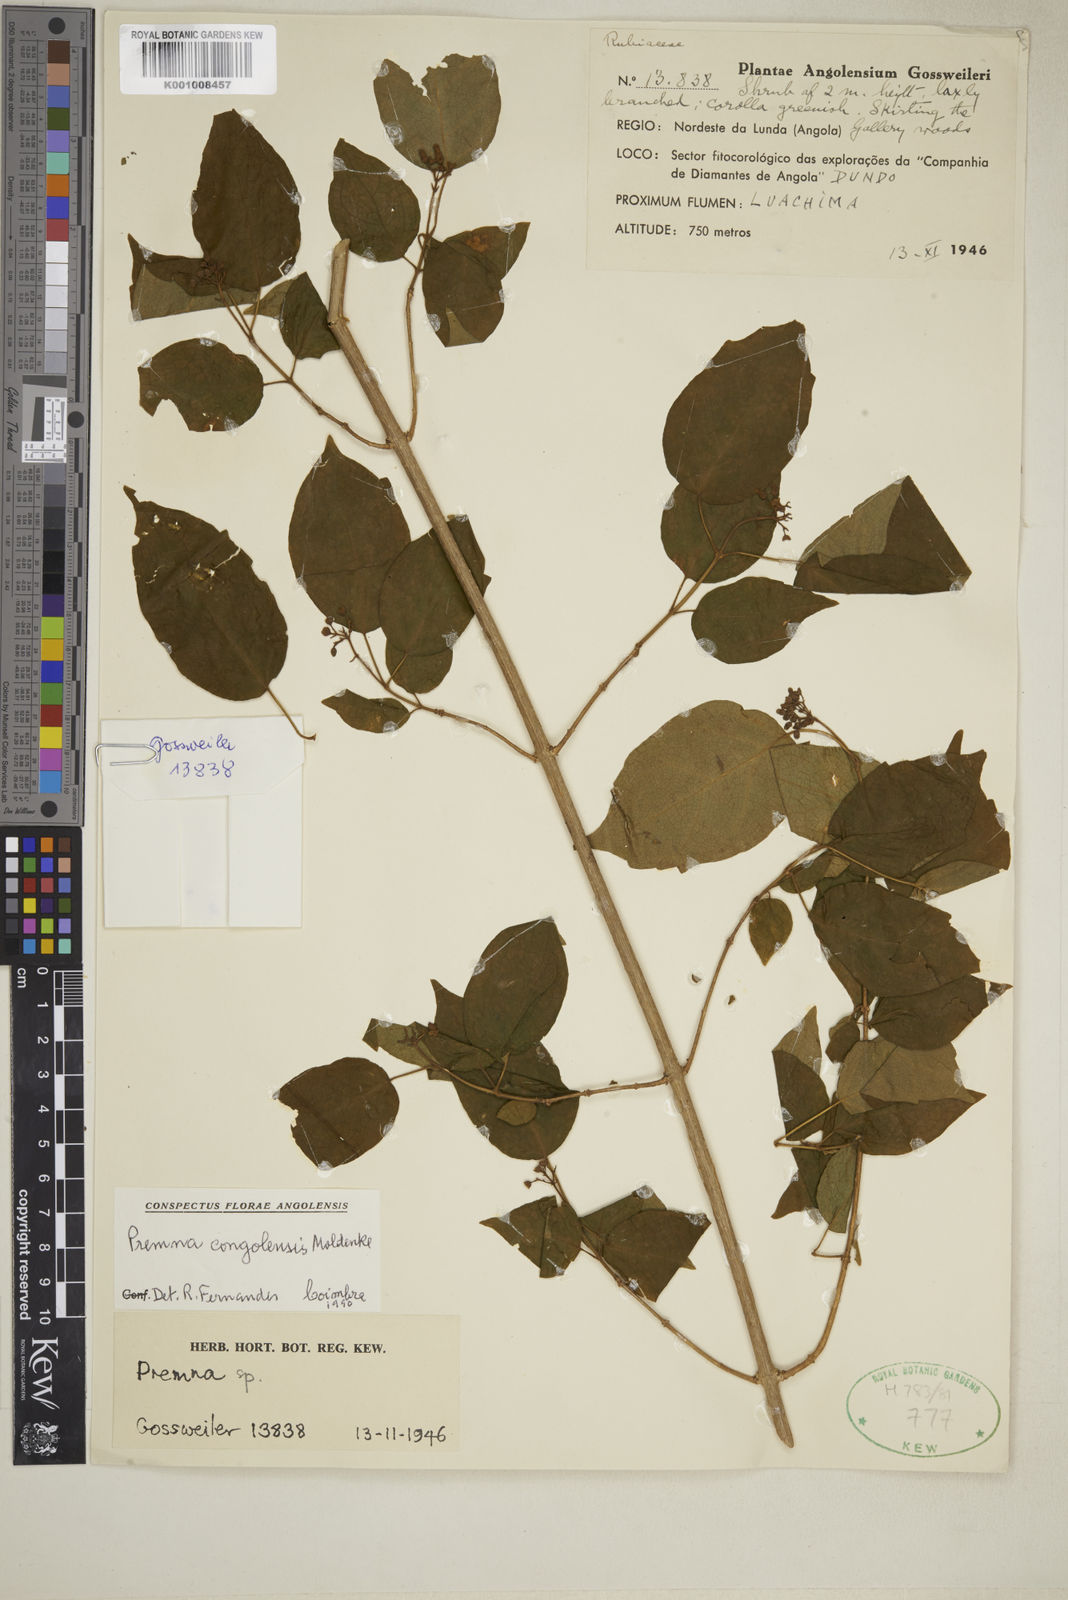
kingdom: Plantae
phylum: Tracheophyta
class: Magnoliopsida
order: Lamiales
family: Lamiaceae
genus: Premna
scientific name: Premna matadiensis
